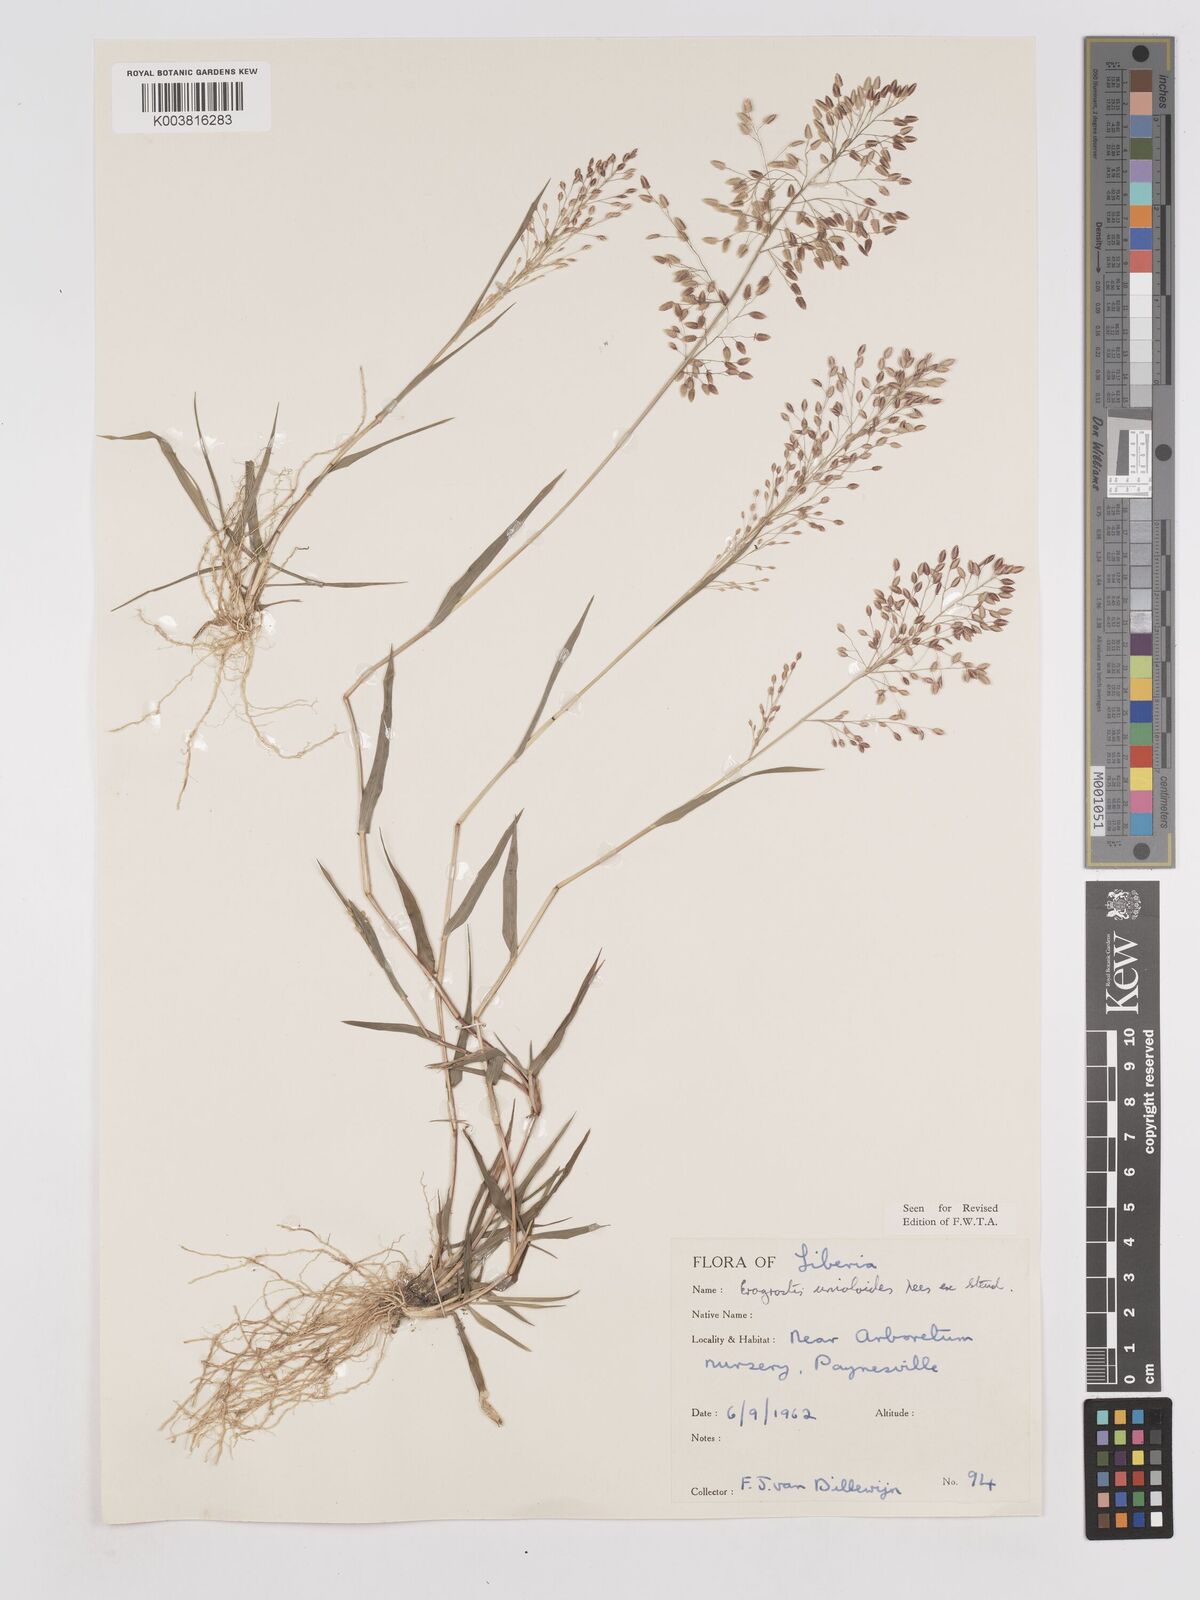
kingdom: Plantae
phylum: Tracheophyta
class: Liliopsida
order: Poales
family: Poaceae
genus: Eragrostis
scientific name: Eragrostis unioloides
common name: Chinese lovegrass
